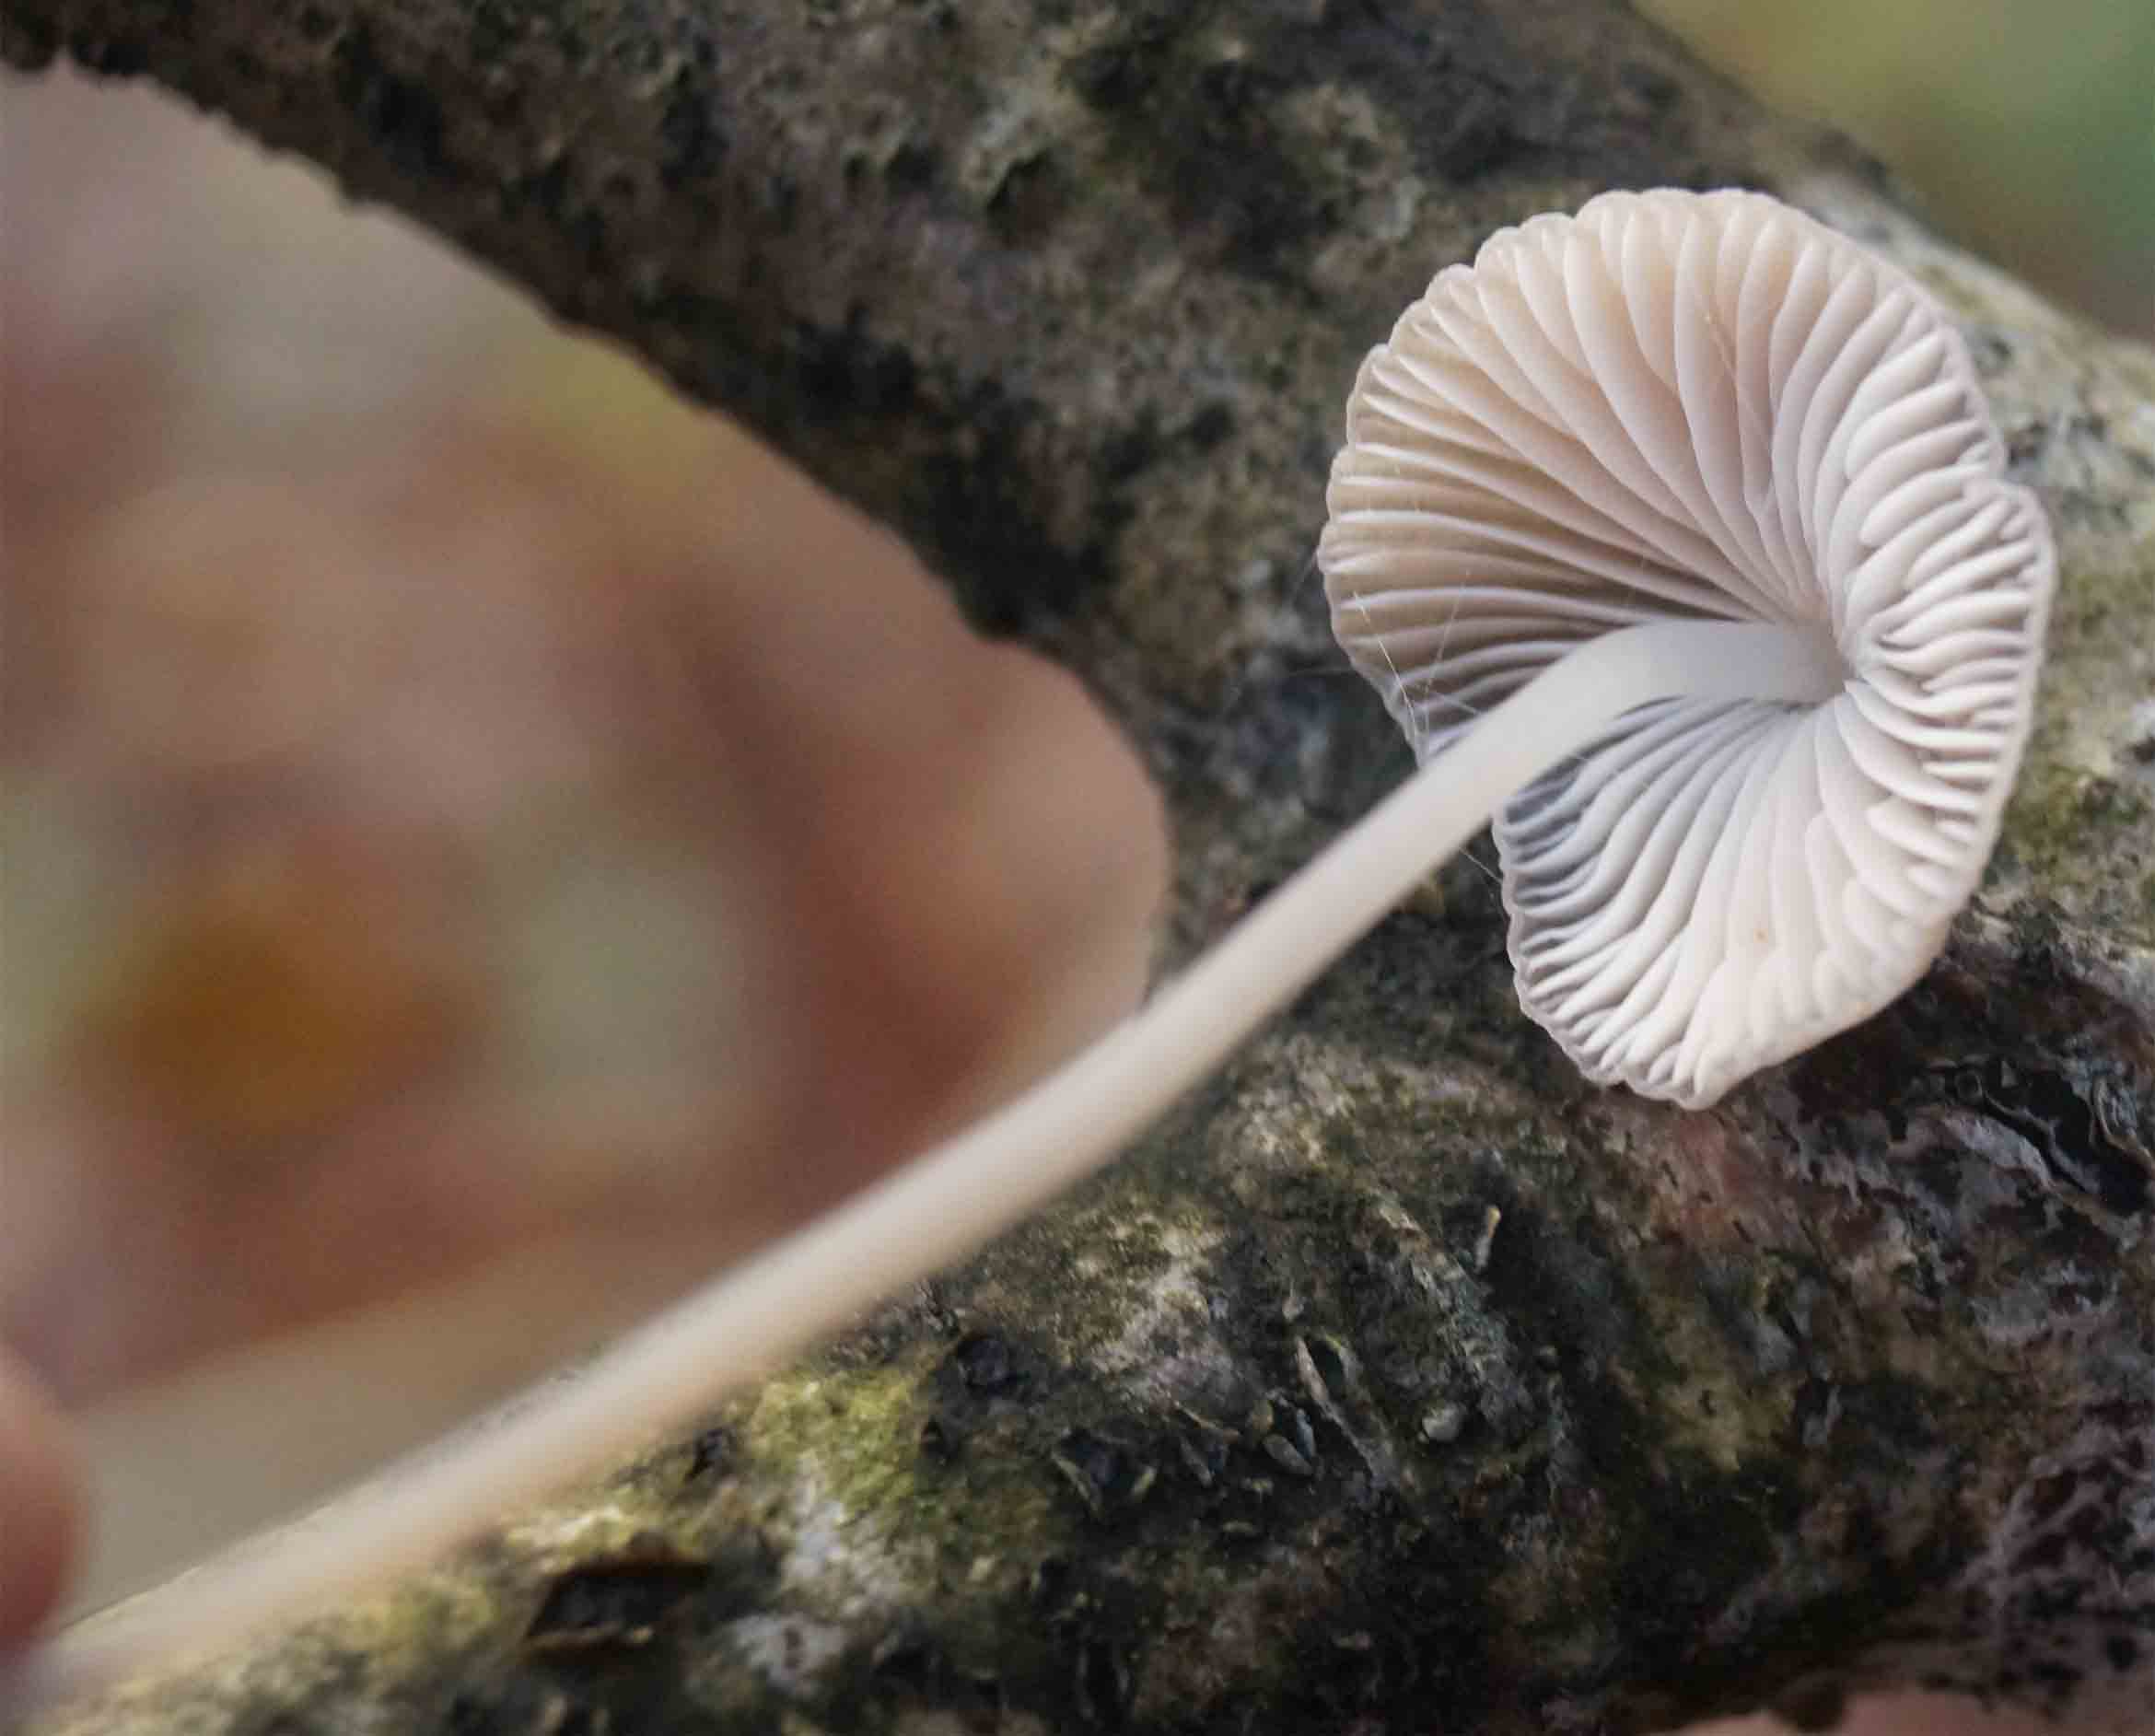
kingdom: Fungi
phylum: Basidiomycota
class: Agaricomycetes
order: Agaricales
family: Mycenaceae
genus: Mycena
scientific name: Mycena vitilis
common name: blankstokket huesvamp
